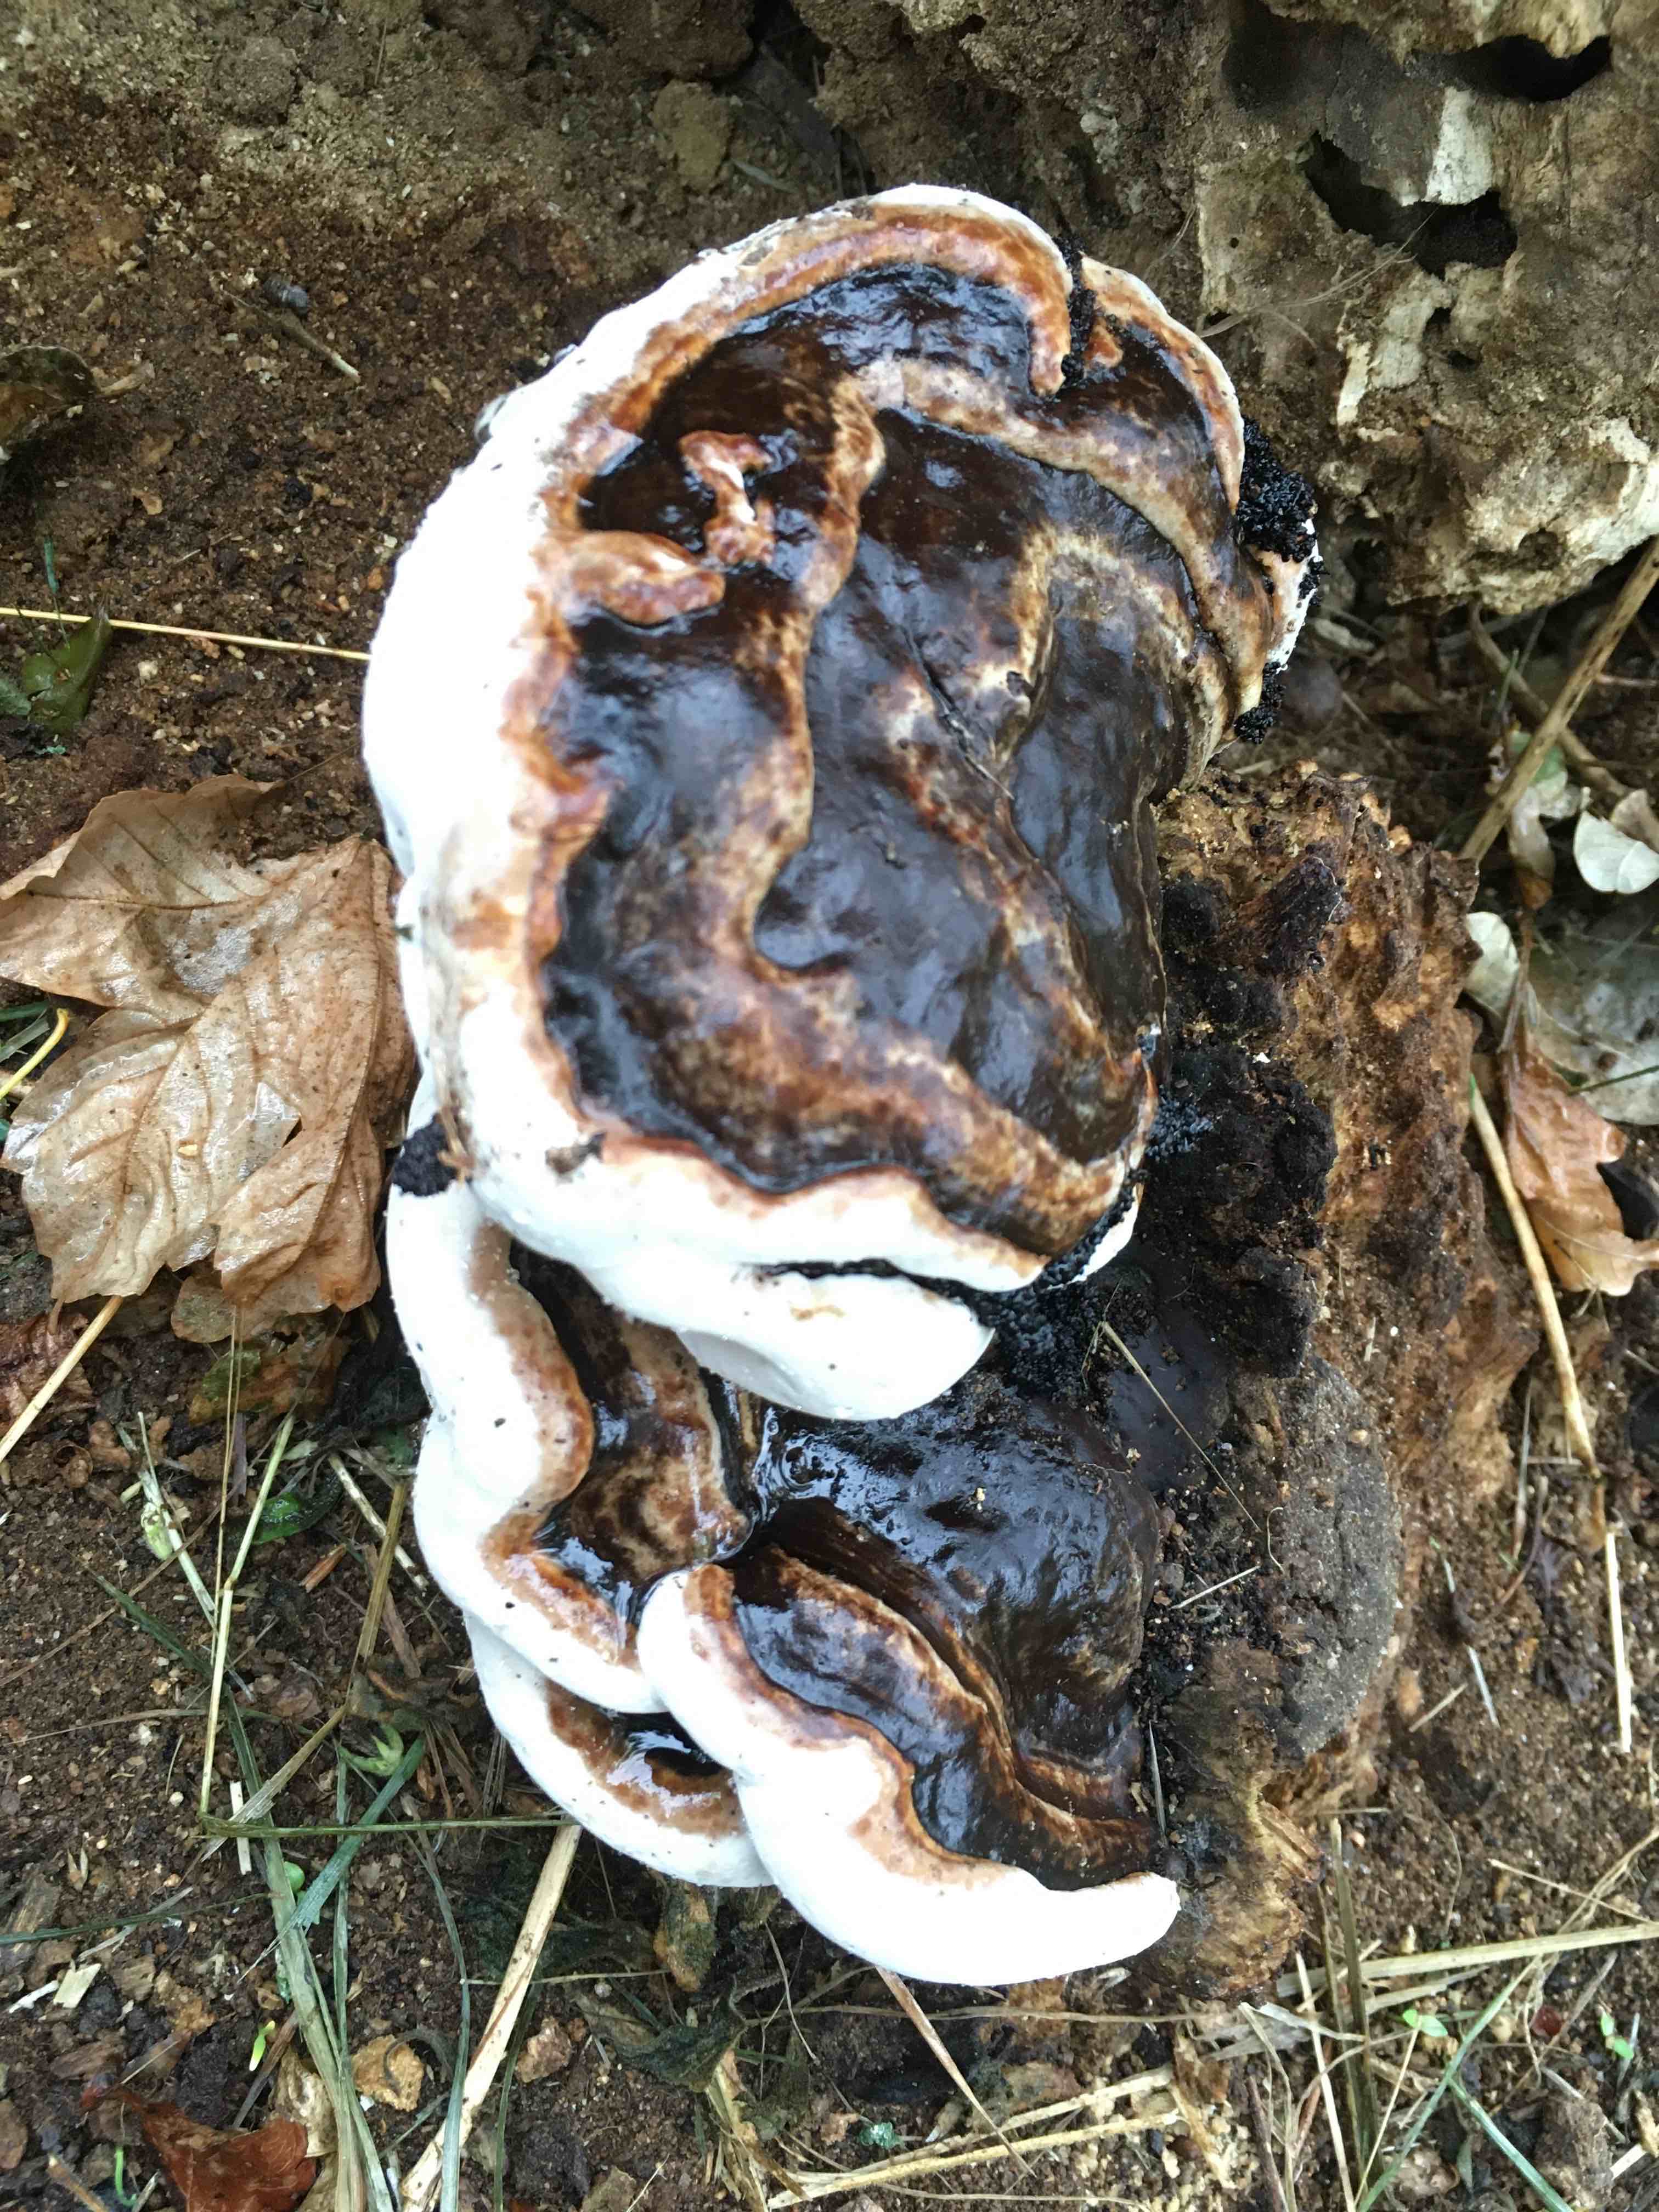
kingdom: Fungi
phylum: Basidiomycota
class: Agaricomycetes
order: Polyporales
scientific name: Polyporales
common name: poresvampordenen
